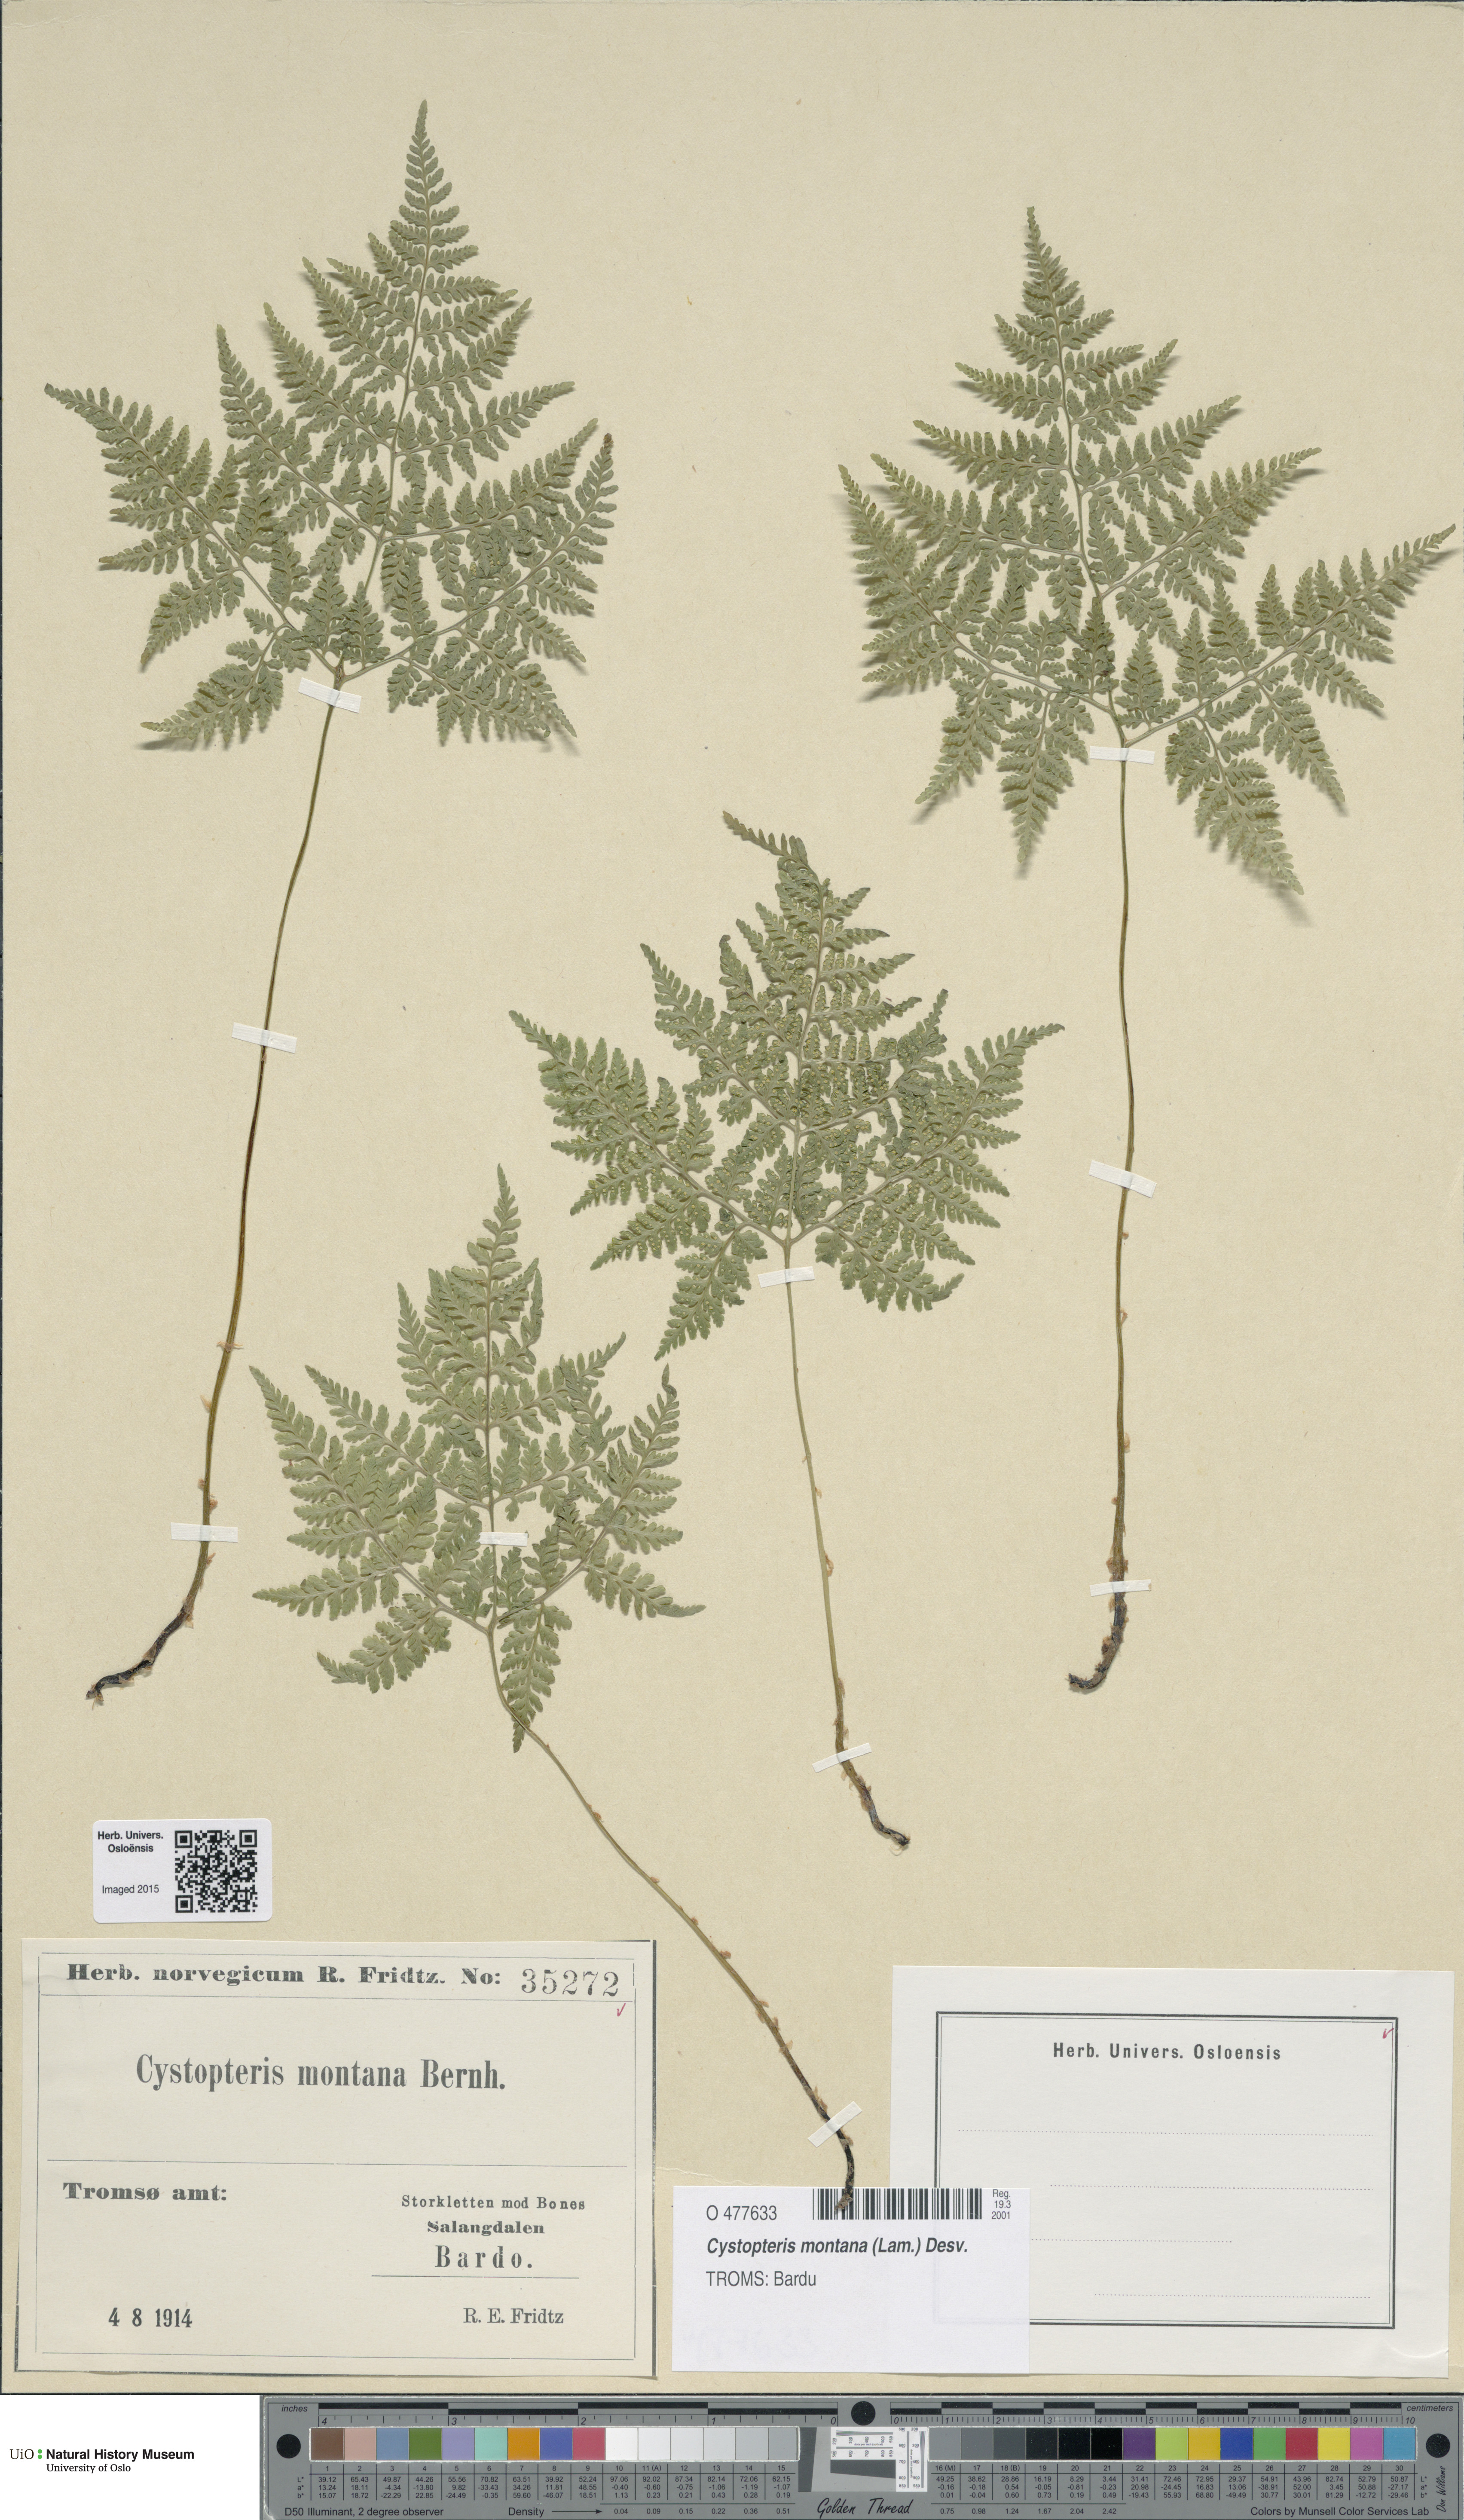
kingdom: Plantae
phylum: Tracheophyta
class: Polypodiopsida
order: Polypodiales
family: Cystopteridaceae
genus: Cystopteris
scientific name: Cystopteris montana
